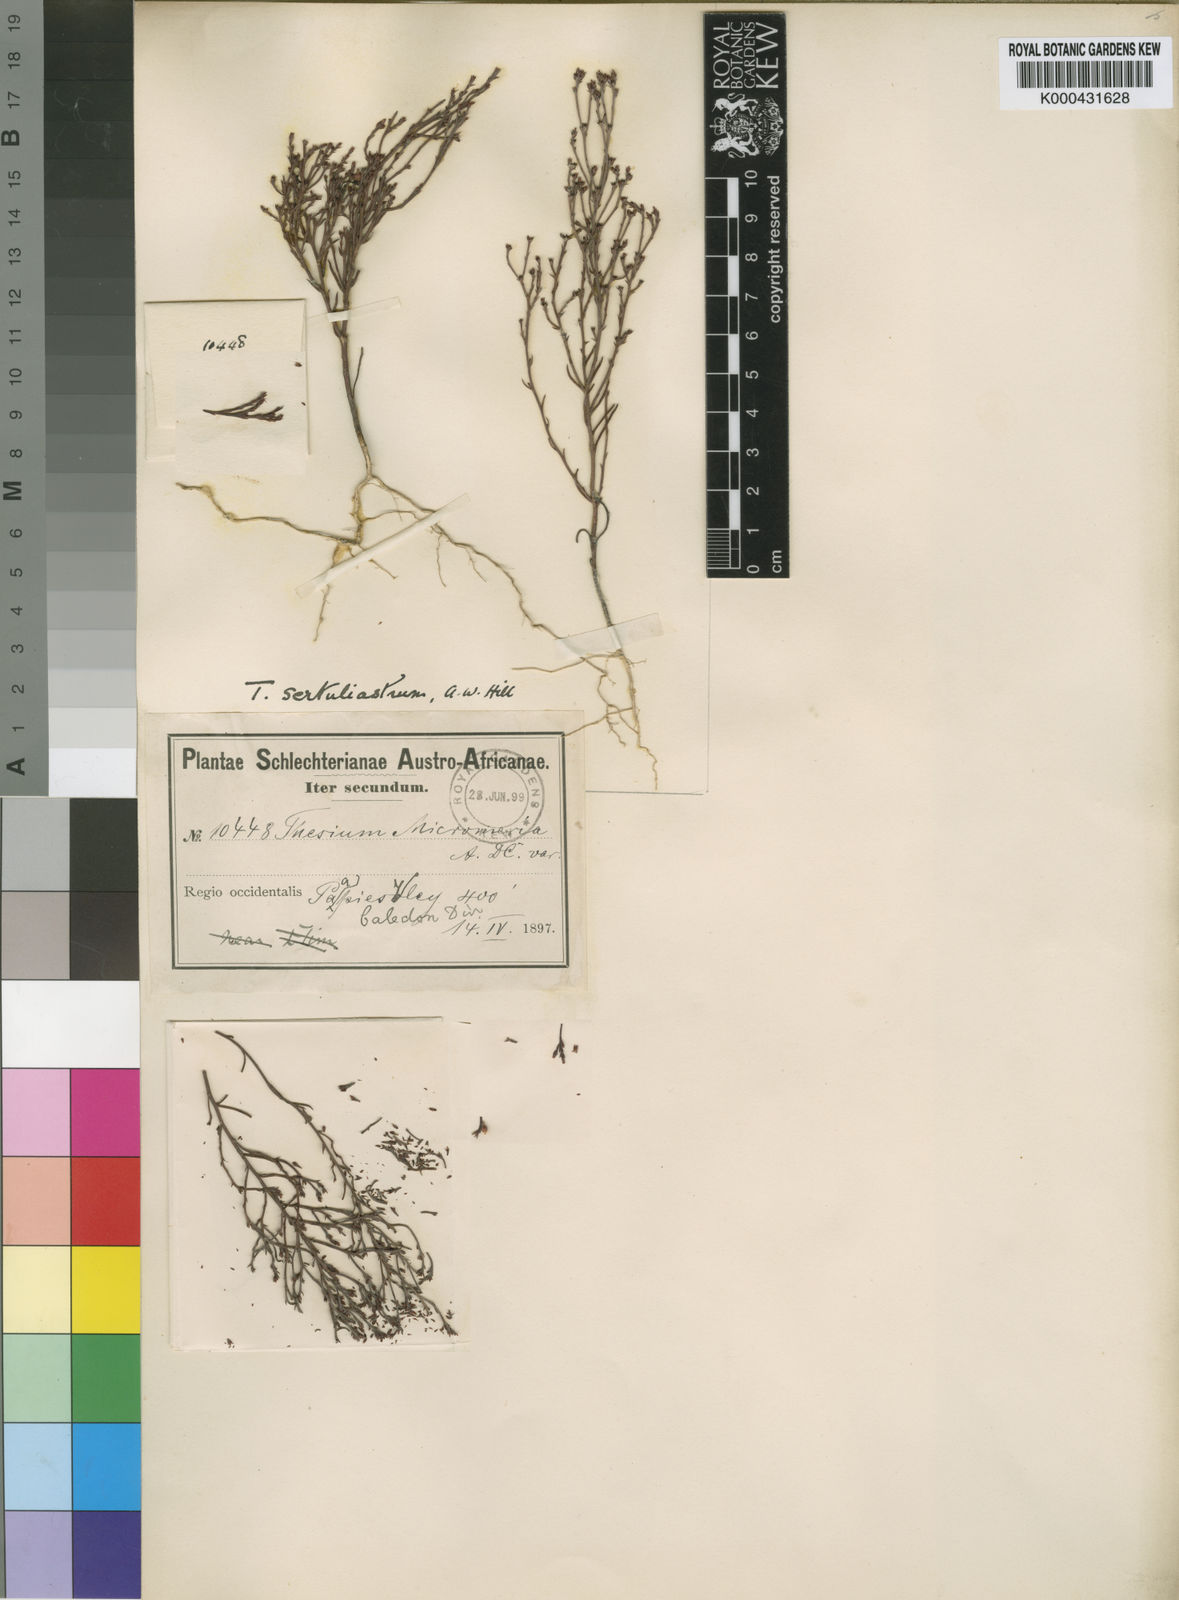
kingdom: Plantae
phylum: Tracheophyta
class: Magnoliopsida
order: Santalales
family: Thesiaceae
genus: Thesium
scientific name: Thesium sertulariastrum
